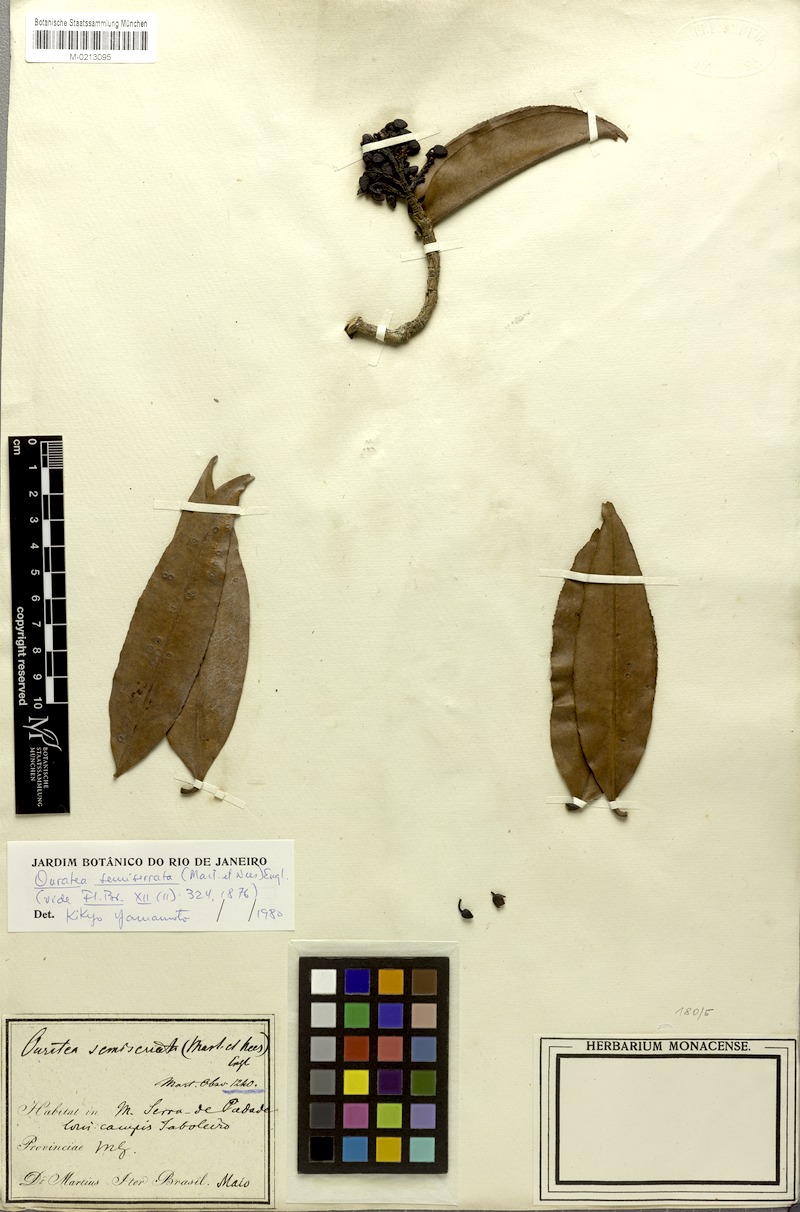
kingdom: Plantae
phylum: Tracheophyta
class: Magnoliopsida
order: Malpighiales
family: Ochnaceae
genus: Ouratea
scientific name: Ouratea semiserrata
